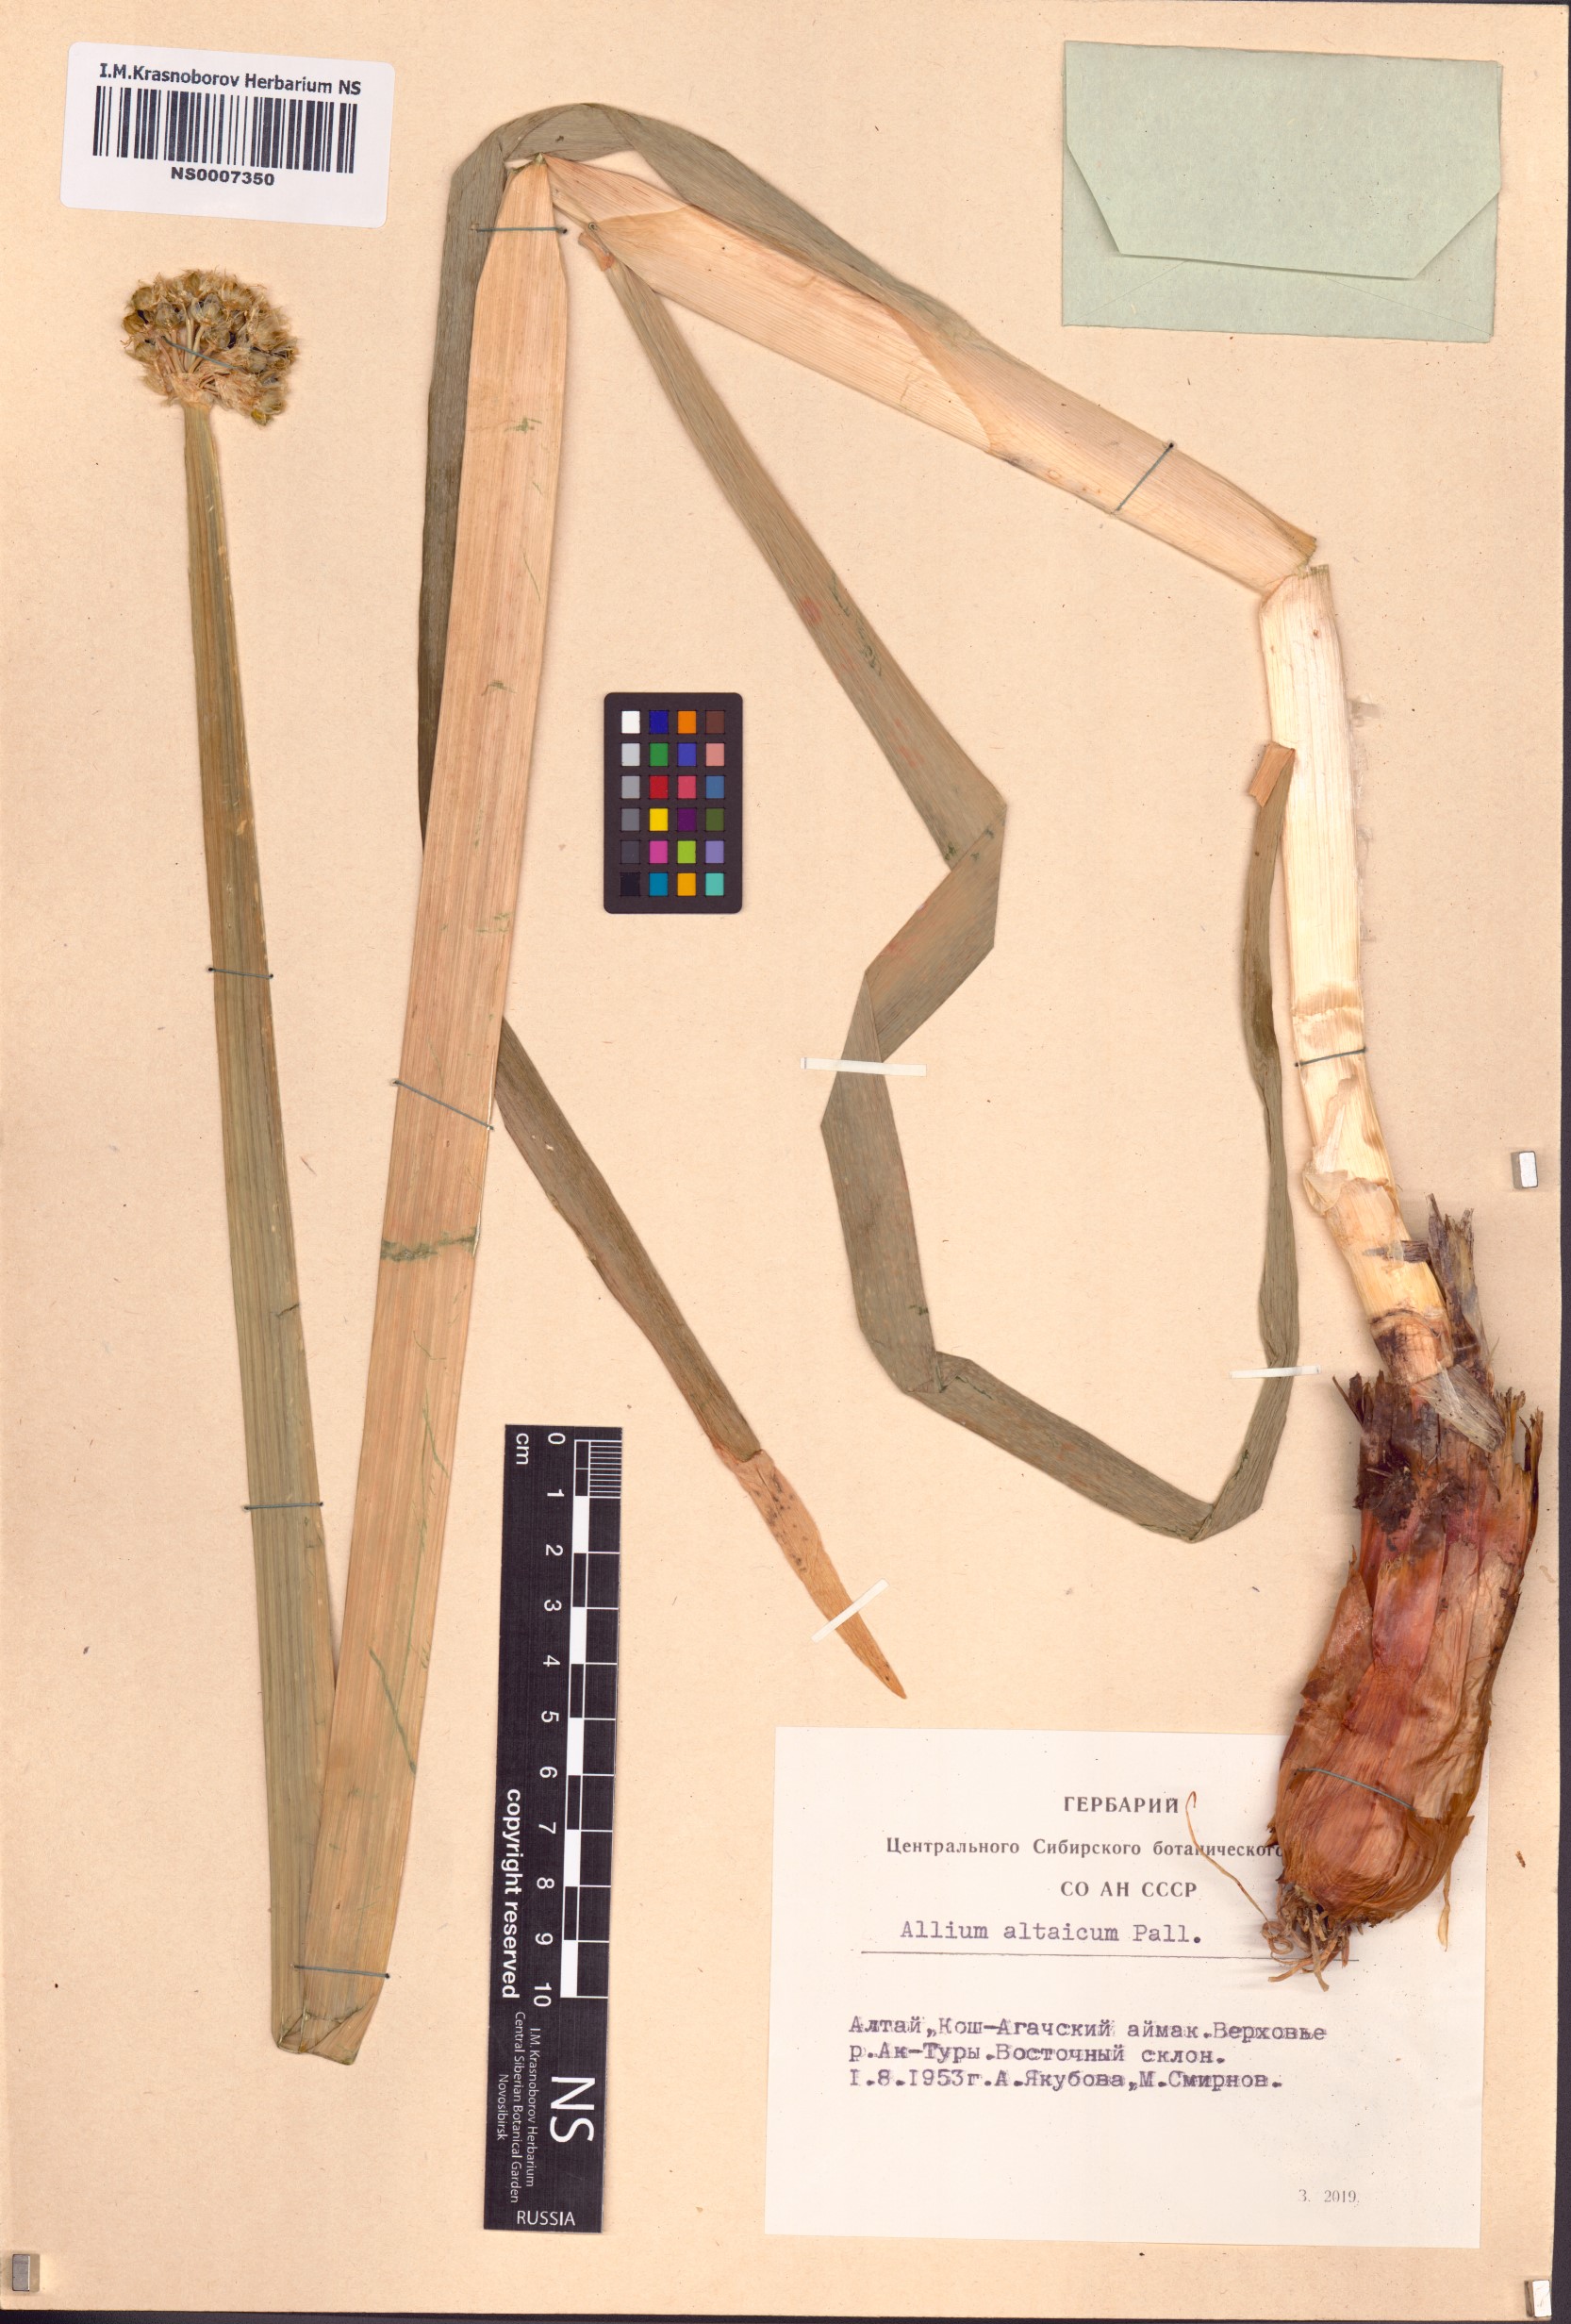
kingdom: Plantae
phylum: Tracheophyta
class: Liliopsida
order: Asparagales
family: Amaryllidaceae
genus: Allium
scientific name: Allium altaicum
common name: Altai onion
